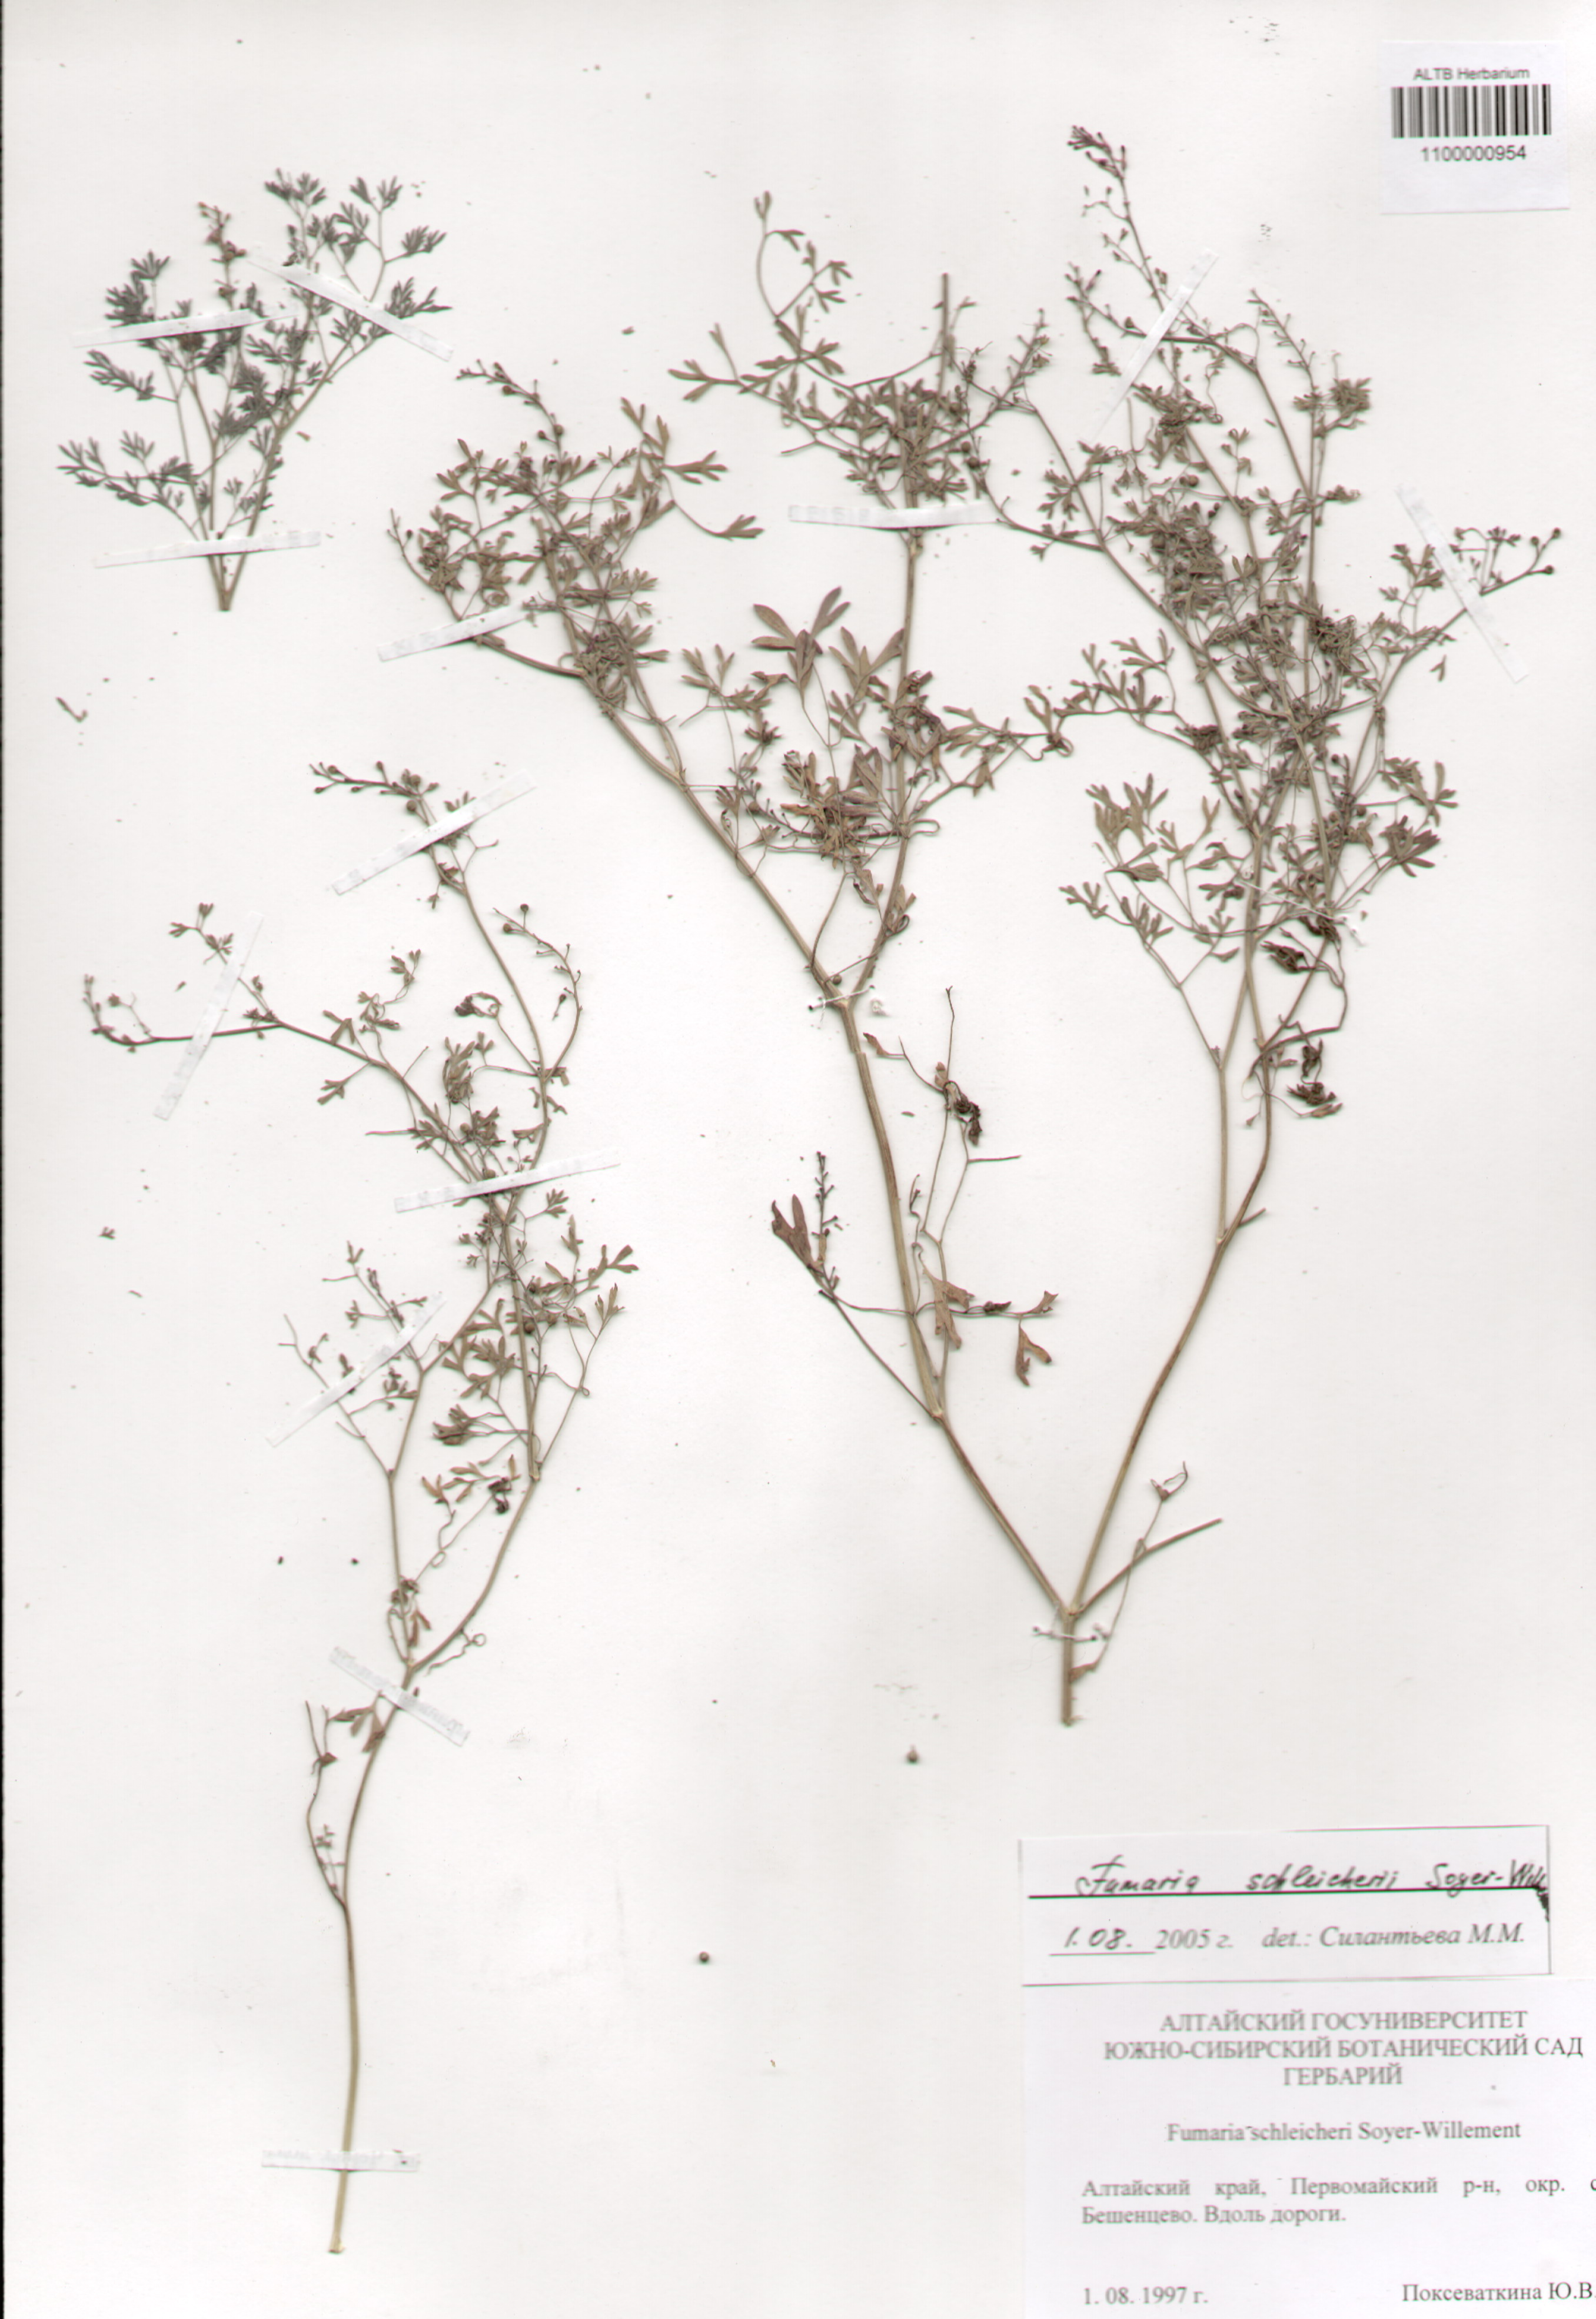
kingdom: Plantae
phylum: Tracheophyta
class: Magnoliopsida
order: Ranunculales
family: Papaveraceae
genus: Fumaria
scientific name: Fumaria schleicheri
